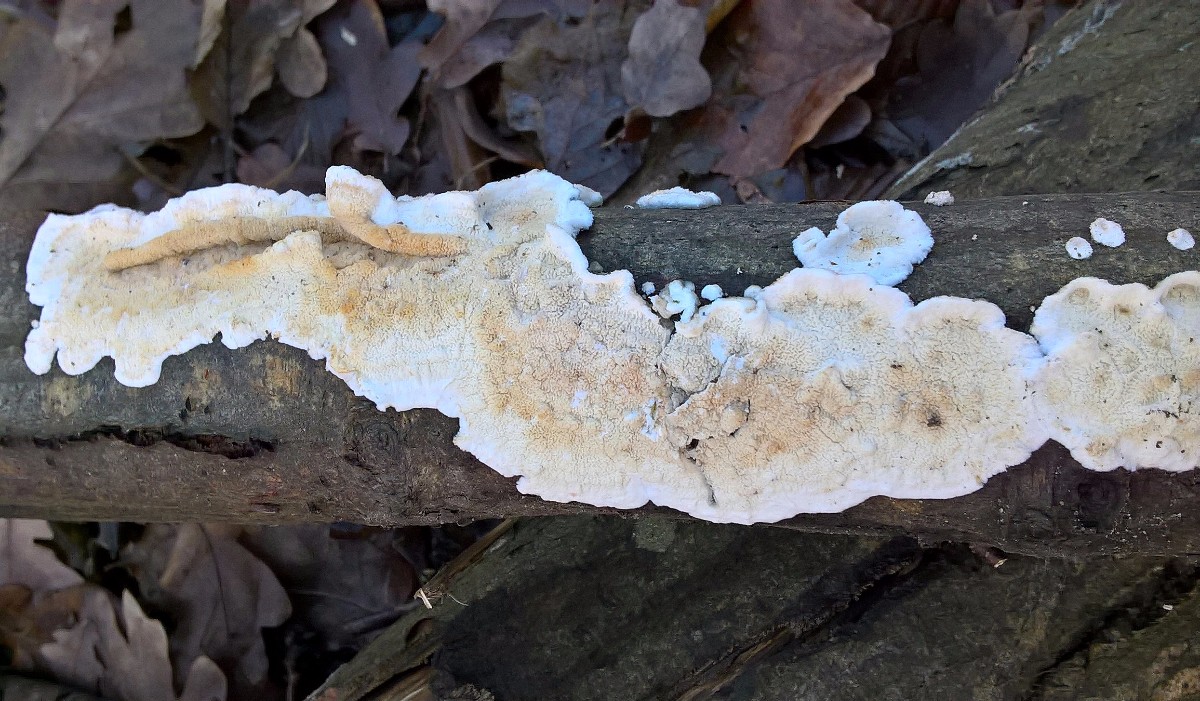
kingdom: Fungi
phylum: Basidiomycota
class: Agaricomycetes
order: Polyporales
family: Irpicaceae
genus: Byssomerulius
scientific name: Byssomerulius corium
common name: læder-åresvamp
